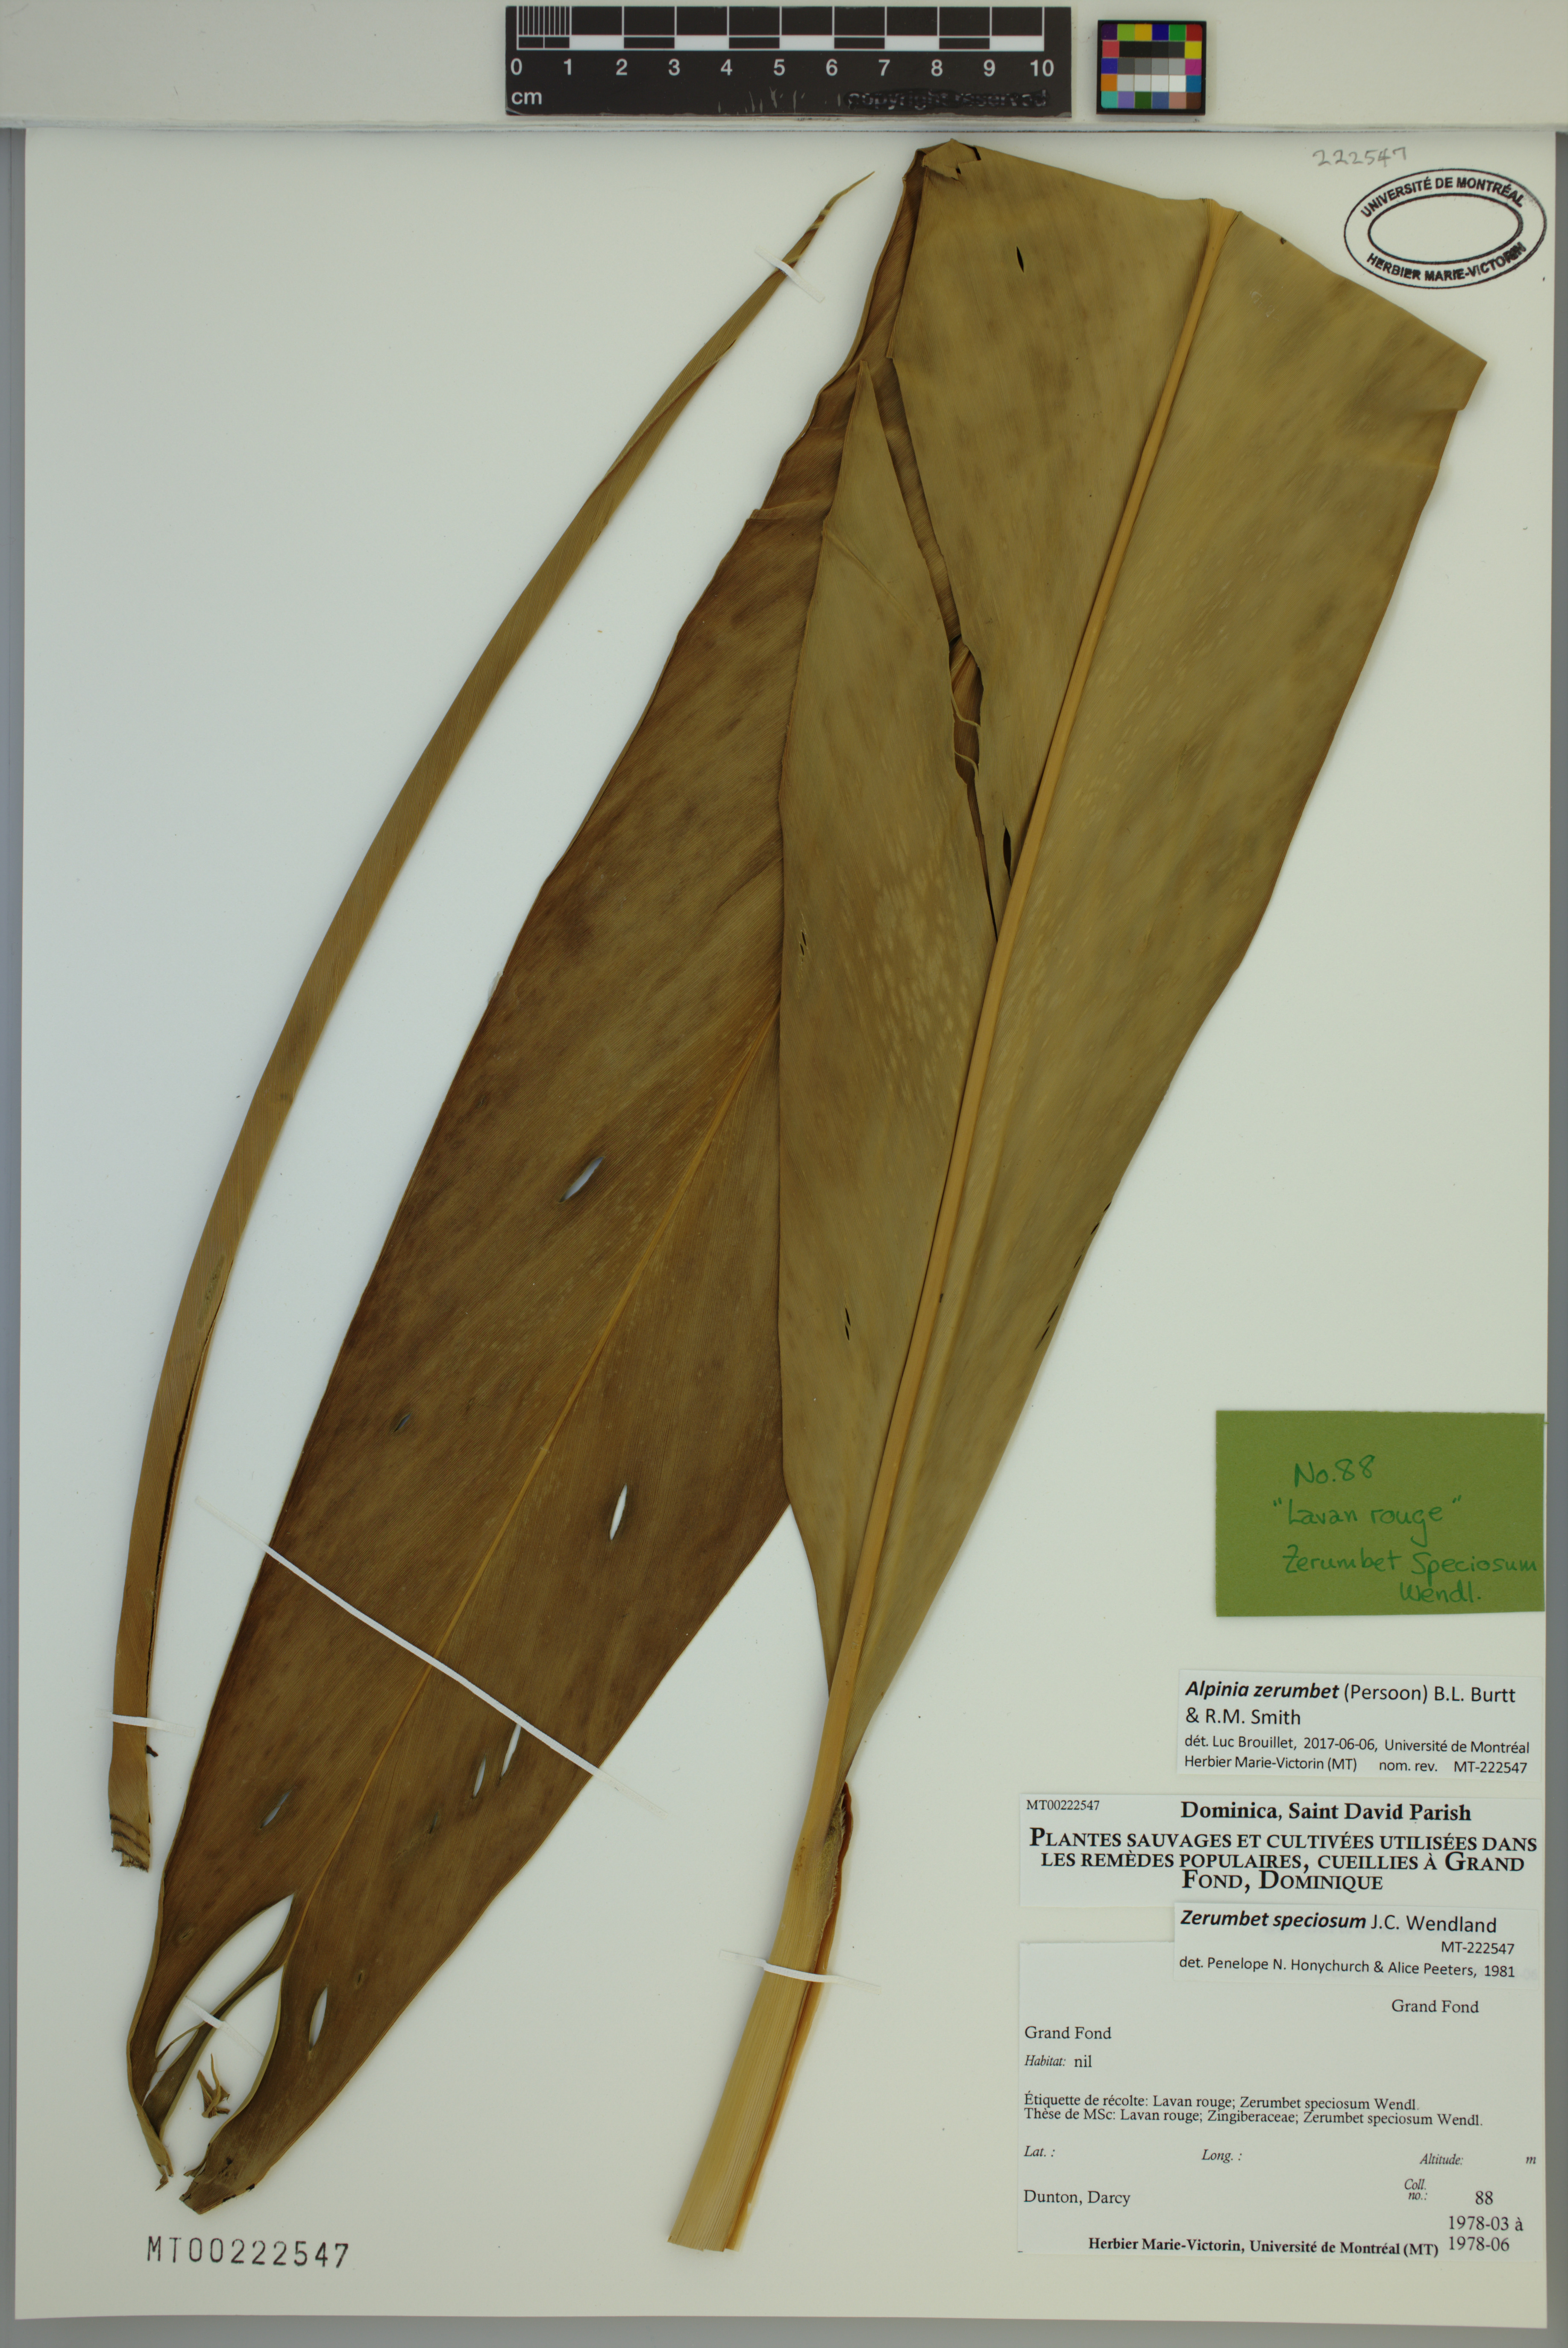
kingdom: Plantae
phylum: Tracheophyta
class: Liliopsida
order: Zingiberales
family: Zingiberaceae
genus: Alpinia
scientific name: Alpinia zerumbet
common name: Shellplant
